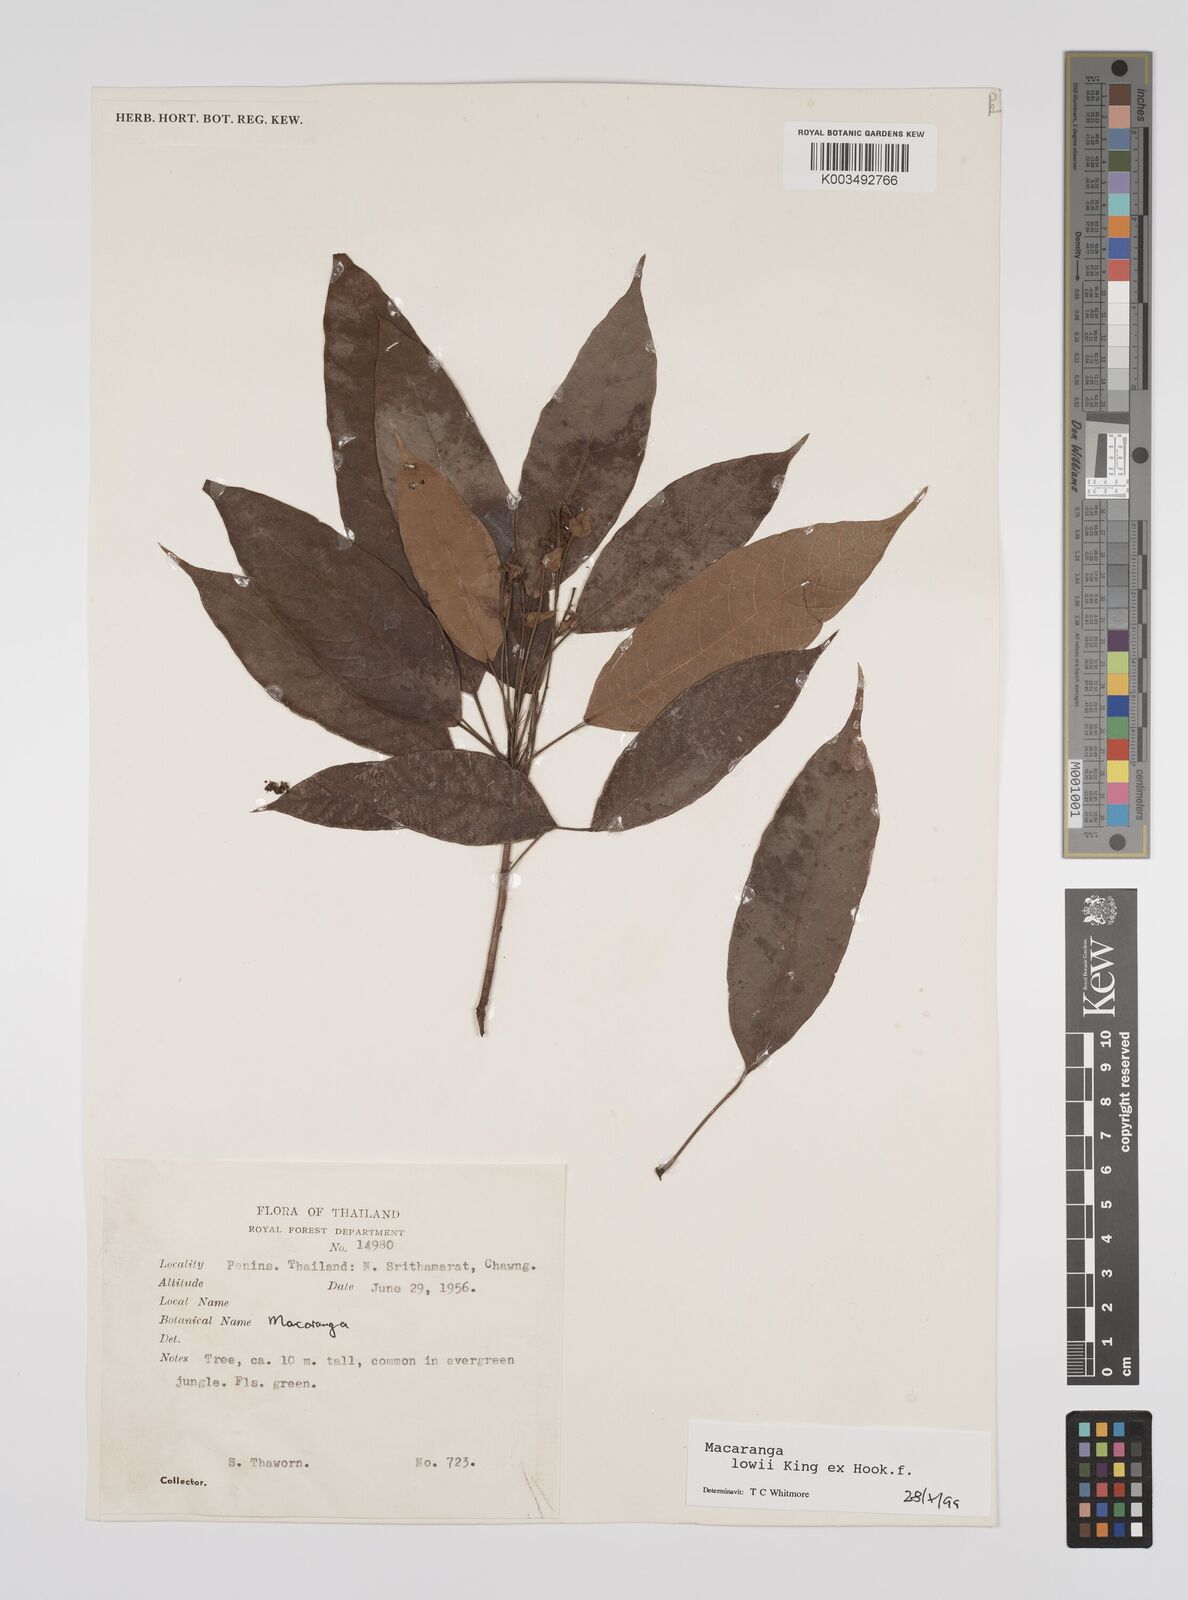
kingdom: Plantae
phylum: Tracheophyta
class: Magnoliopsida
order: Malpighiales
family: Euphorbiaceae
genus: Macaranga
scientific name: Macaranga lowii
